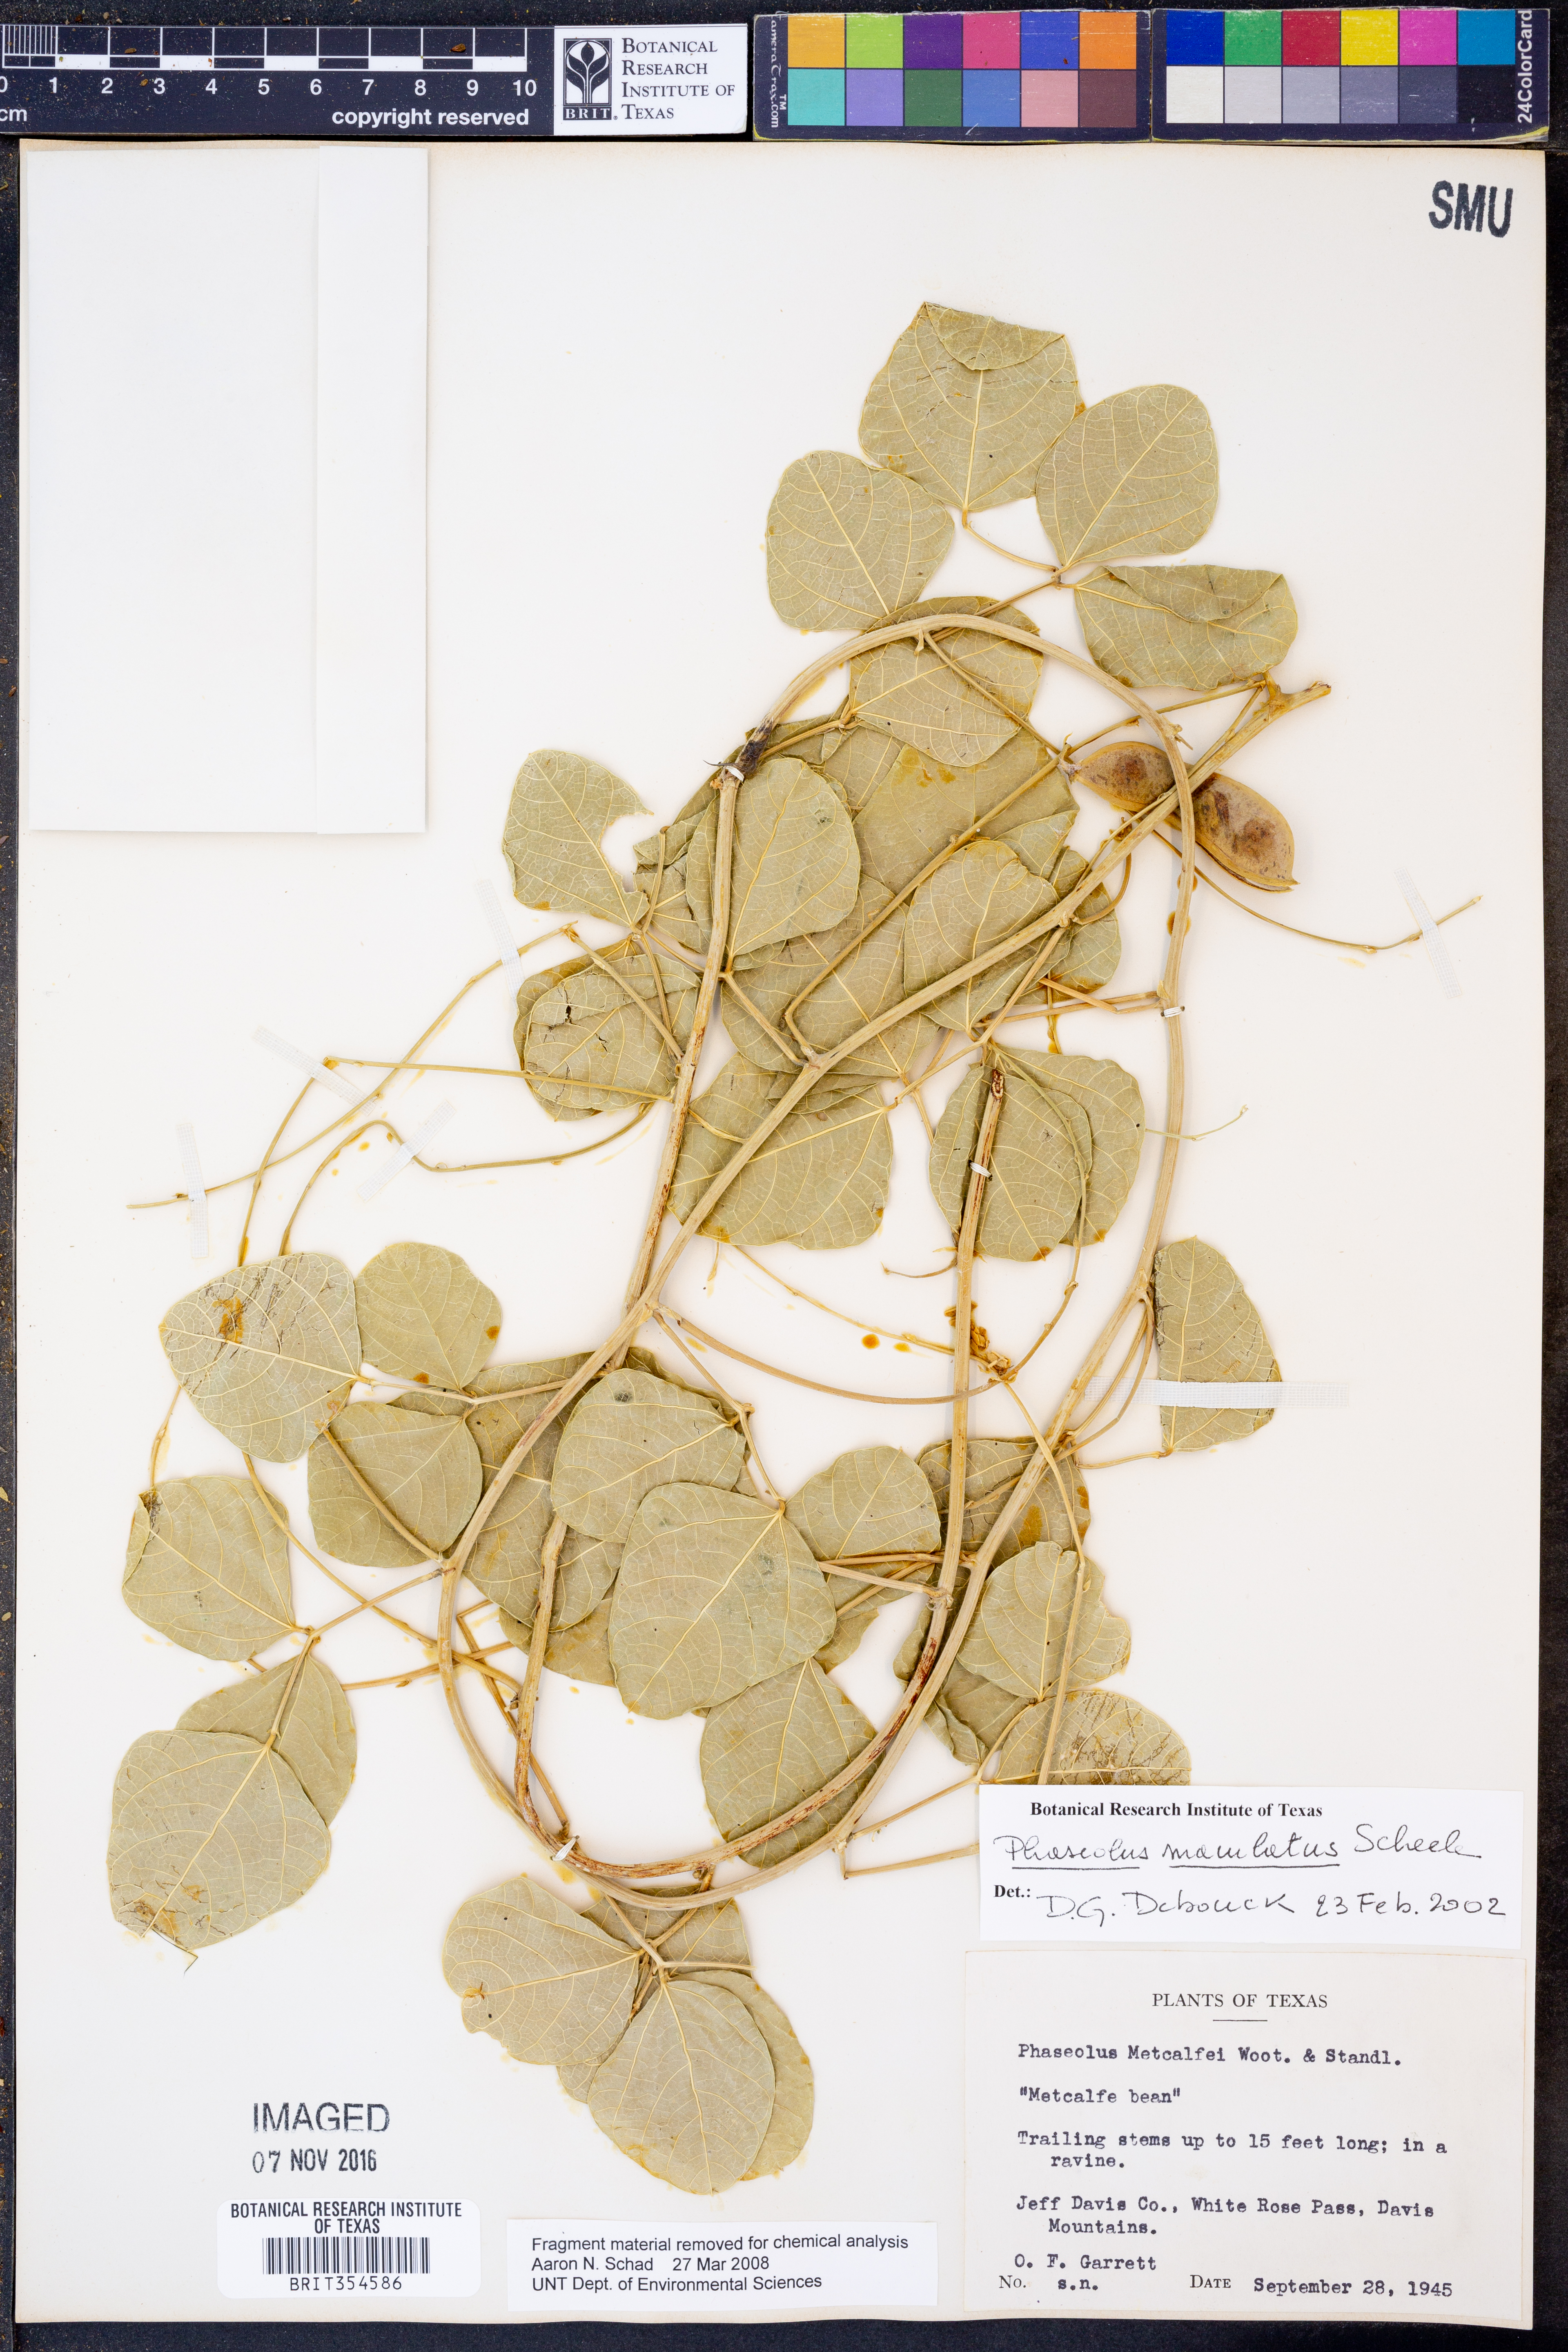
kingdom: Plantae
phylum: Tracheophyta
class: Magnoliopsida
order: Fabales
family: Fabaceae
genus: Phaseolus
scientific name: Phaseolus maculatus
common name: Metcalfe bean
